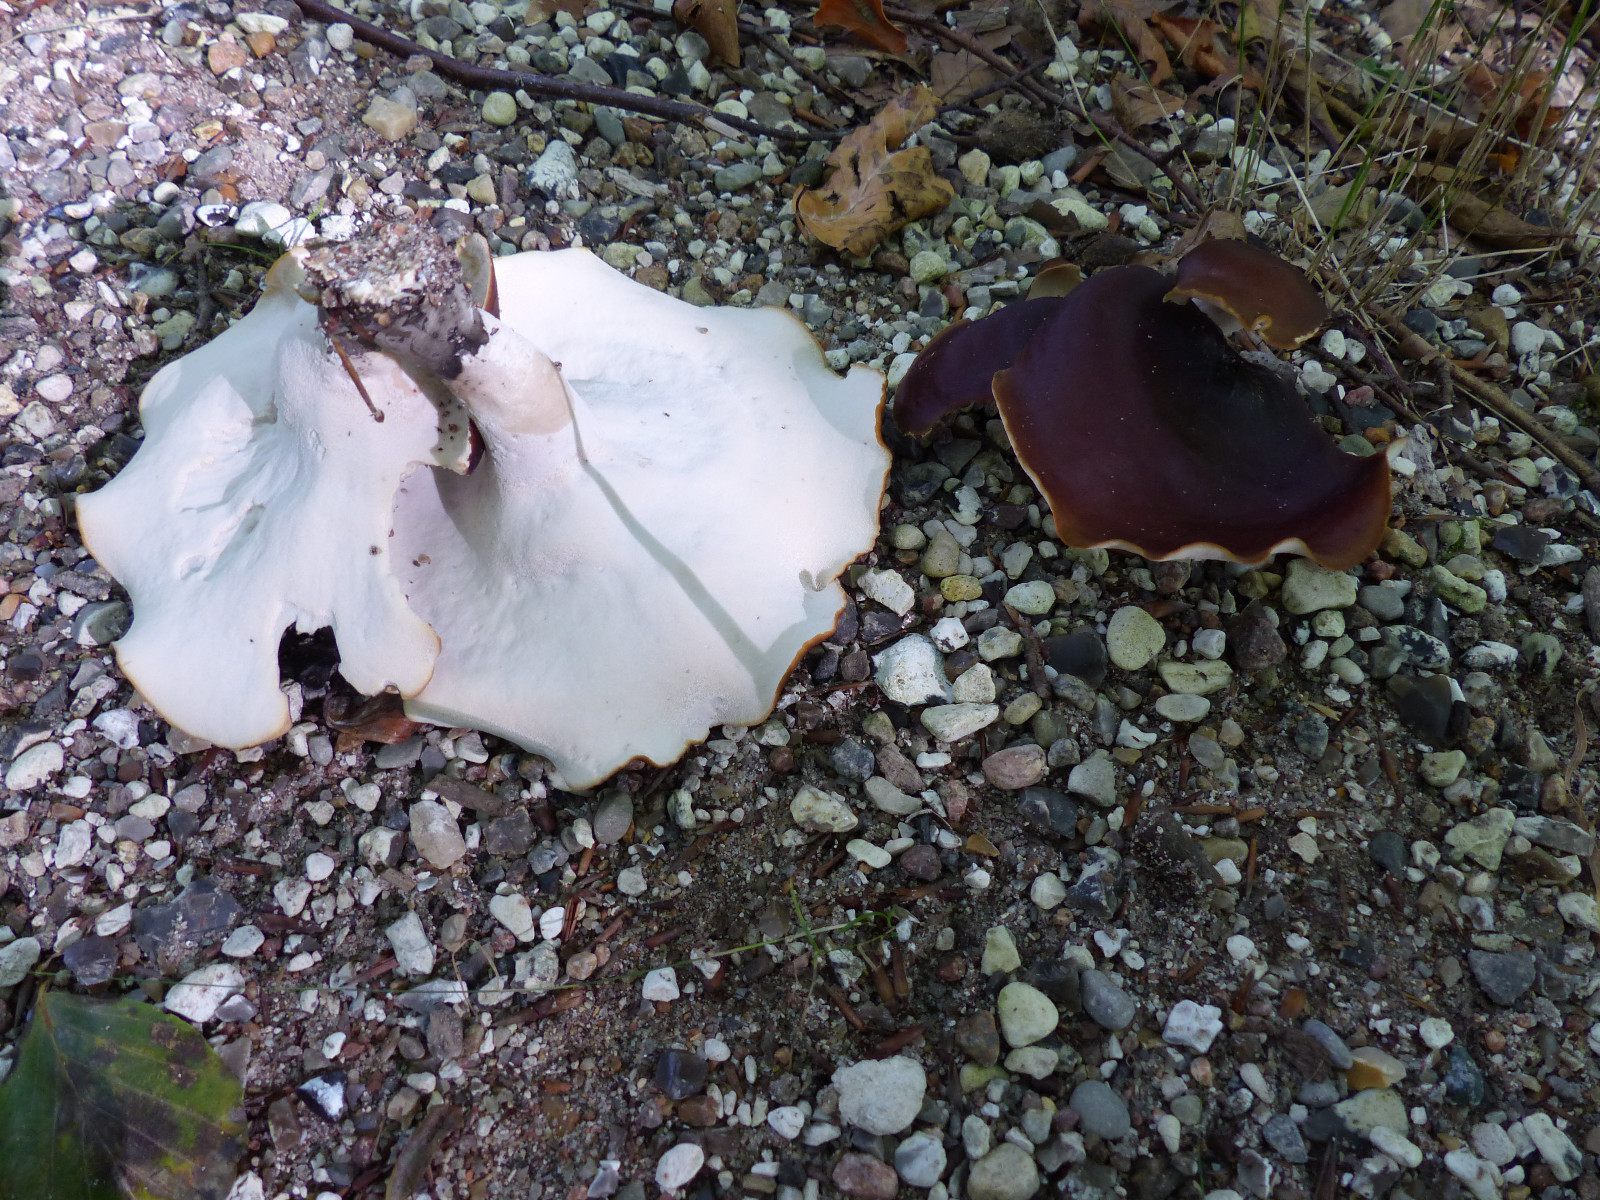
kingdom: Fungi
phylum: Basidiomycota
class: Agaricomycetes
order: Polyporales
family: Polyporaceae
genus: Picipes
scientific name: Picipes badius
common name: kastaniebrun stilkporesvamp
